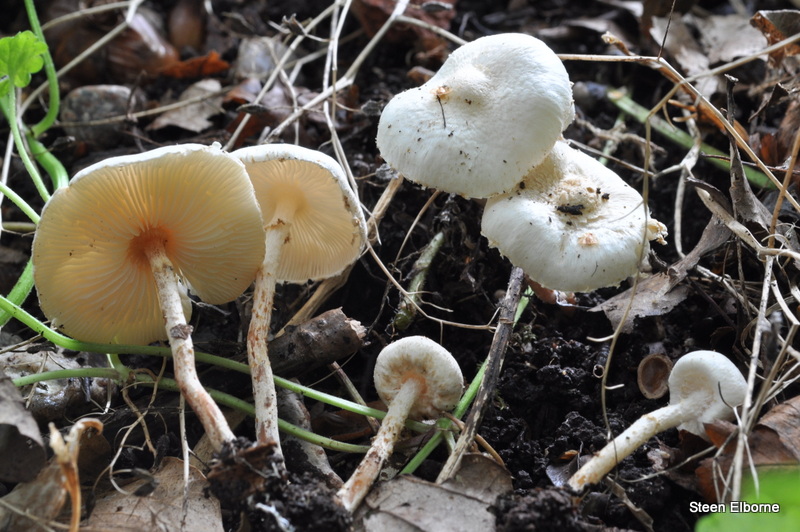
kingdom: Fungi
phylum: Basidiomycota
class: Agaricomycetes
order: Agaricales
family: Agaricaceae
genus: Lepiota
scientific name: Lepiota subalba
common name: hvidlig parasolhat
